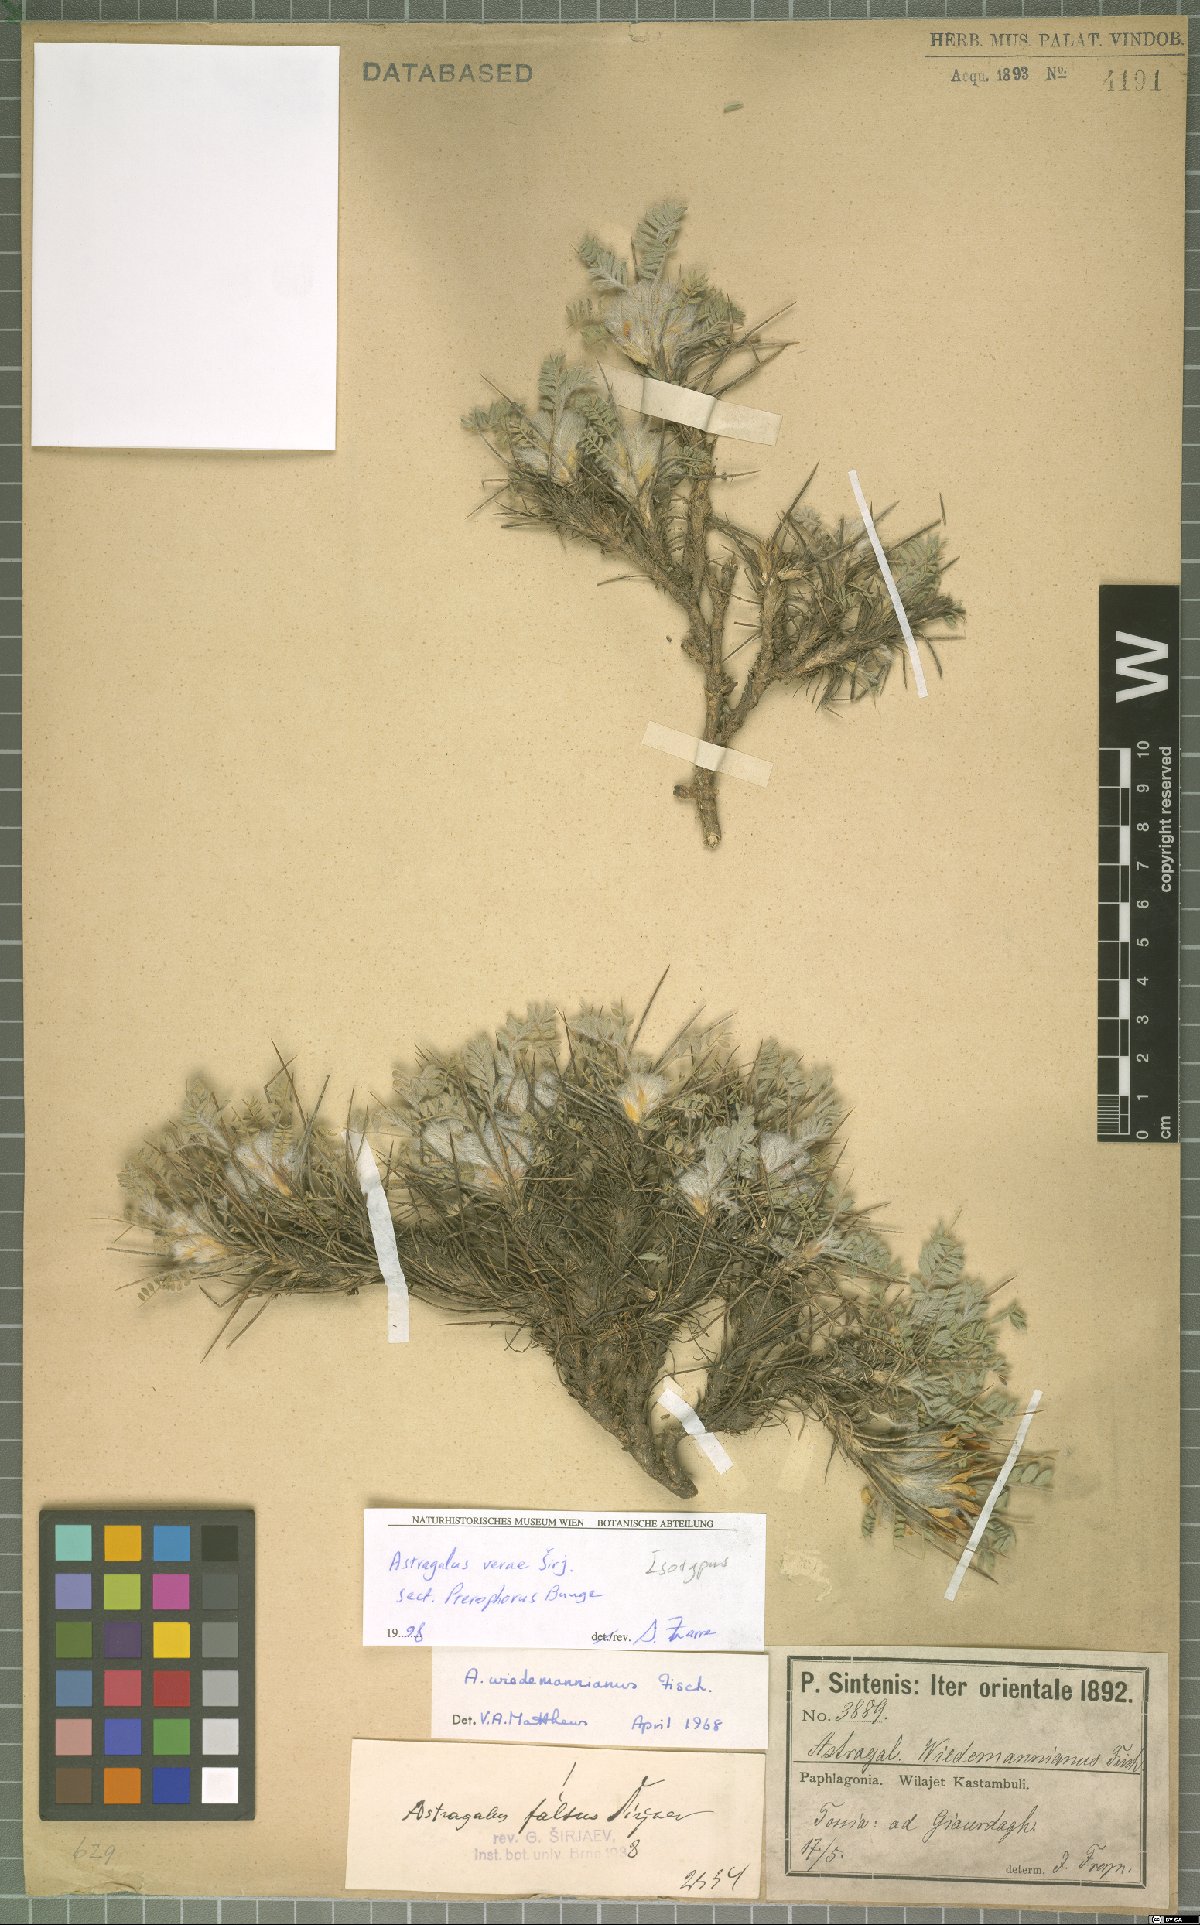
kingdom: Plantae
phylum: Tracheophyta
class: Magnoliopsida
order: Fabales
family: Fabaceae
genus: Astragalus
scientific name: Astragalus verae
